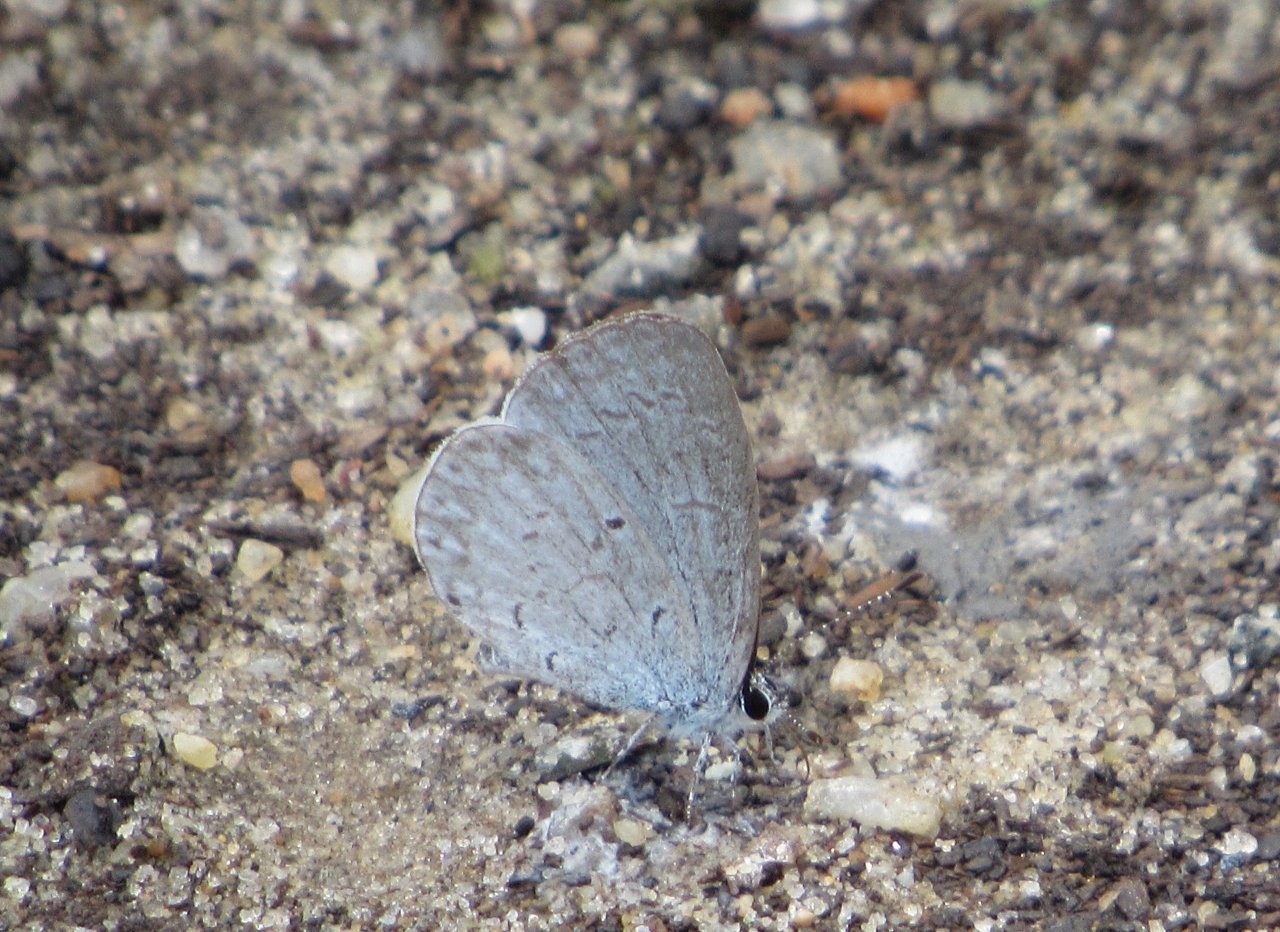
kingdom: Animalia
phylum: Arthropoda
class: Insecta
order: Lepidoptera
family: Lycaenidae
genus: Celastrina
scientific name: Celastrina
